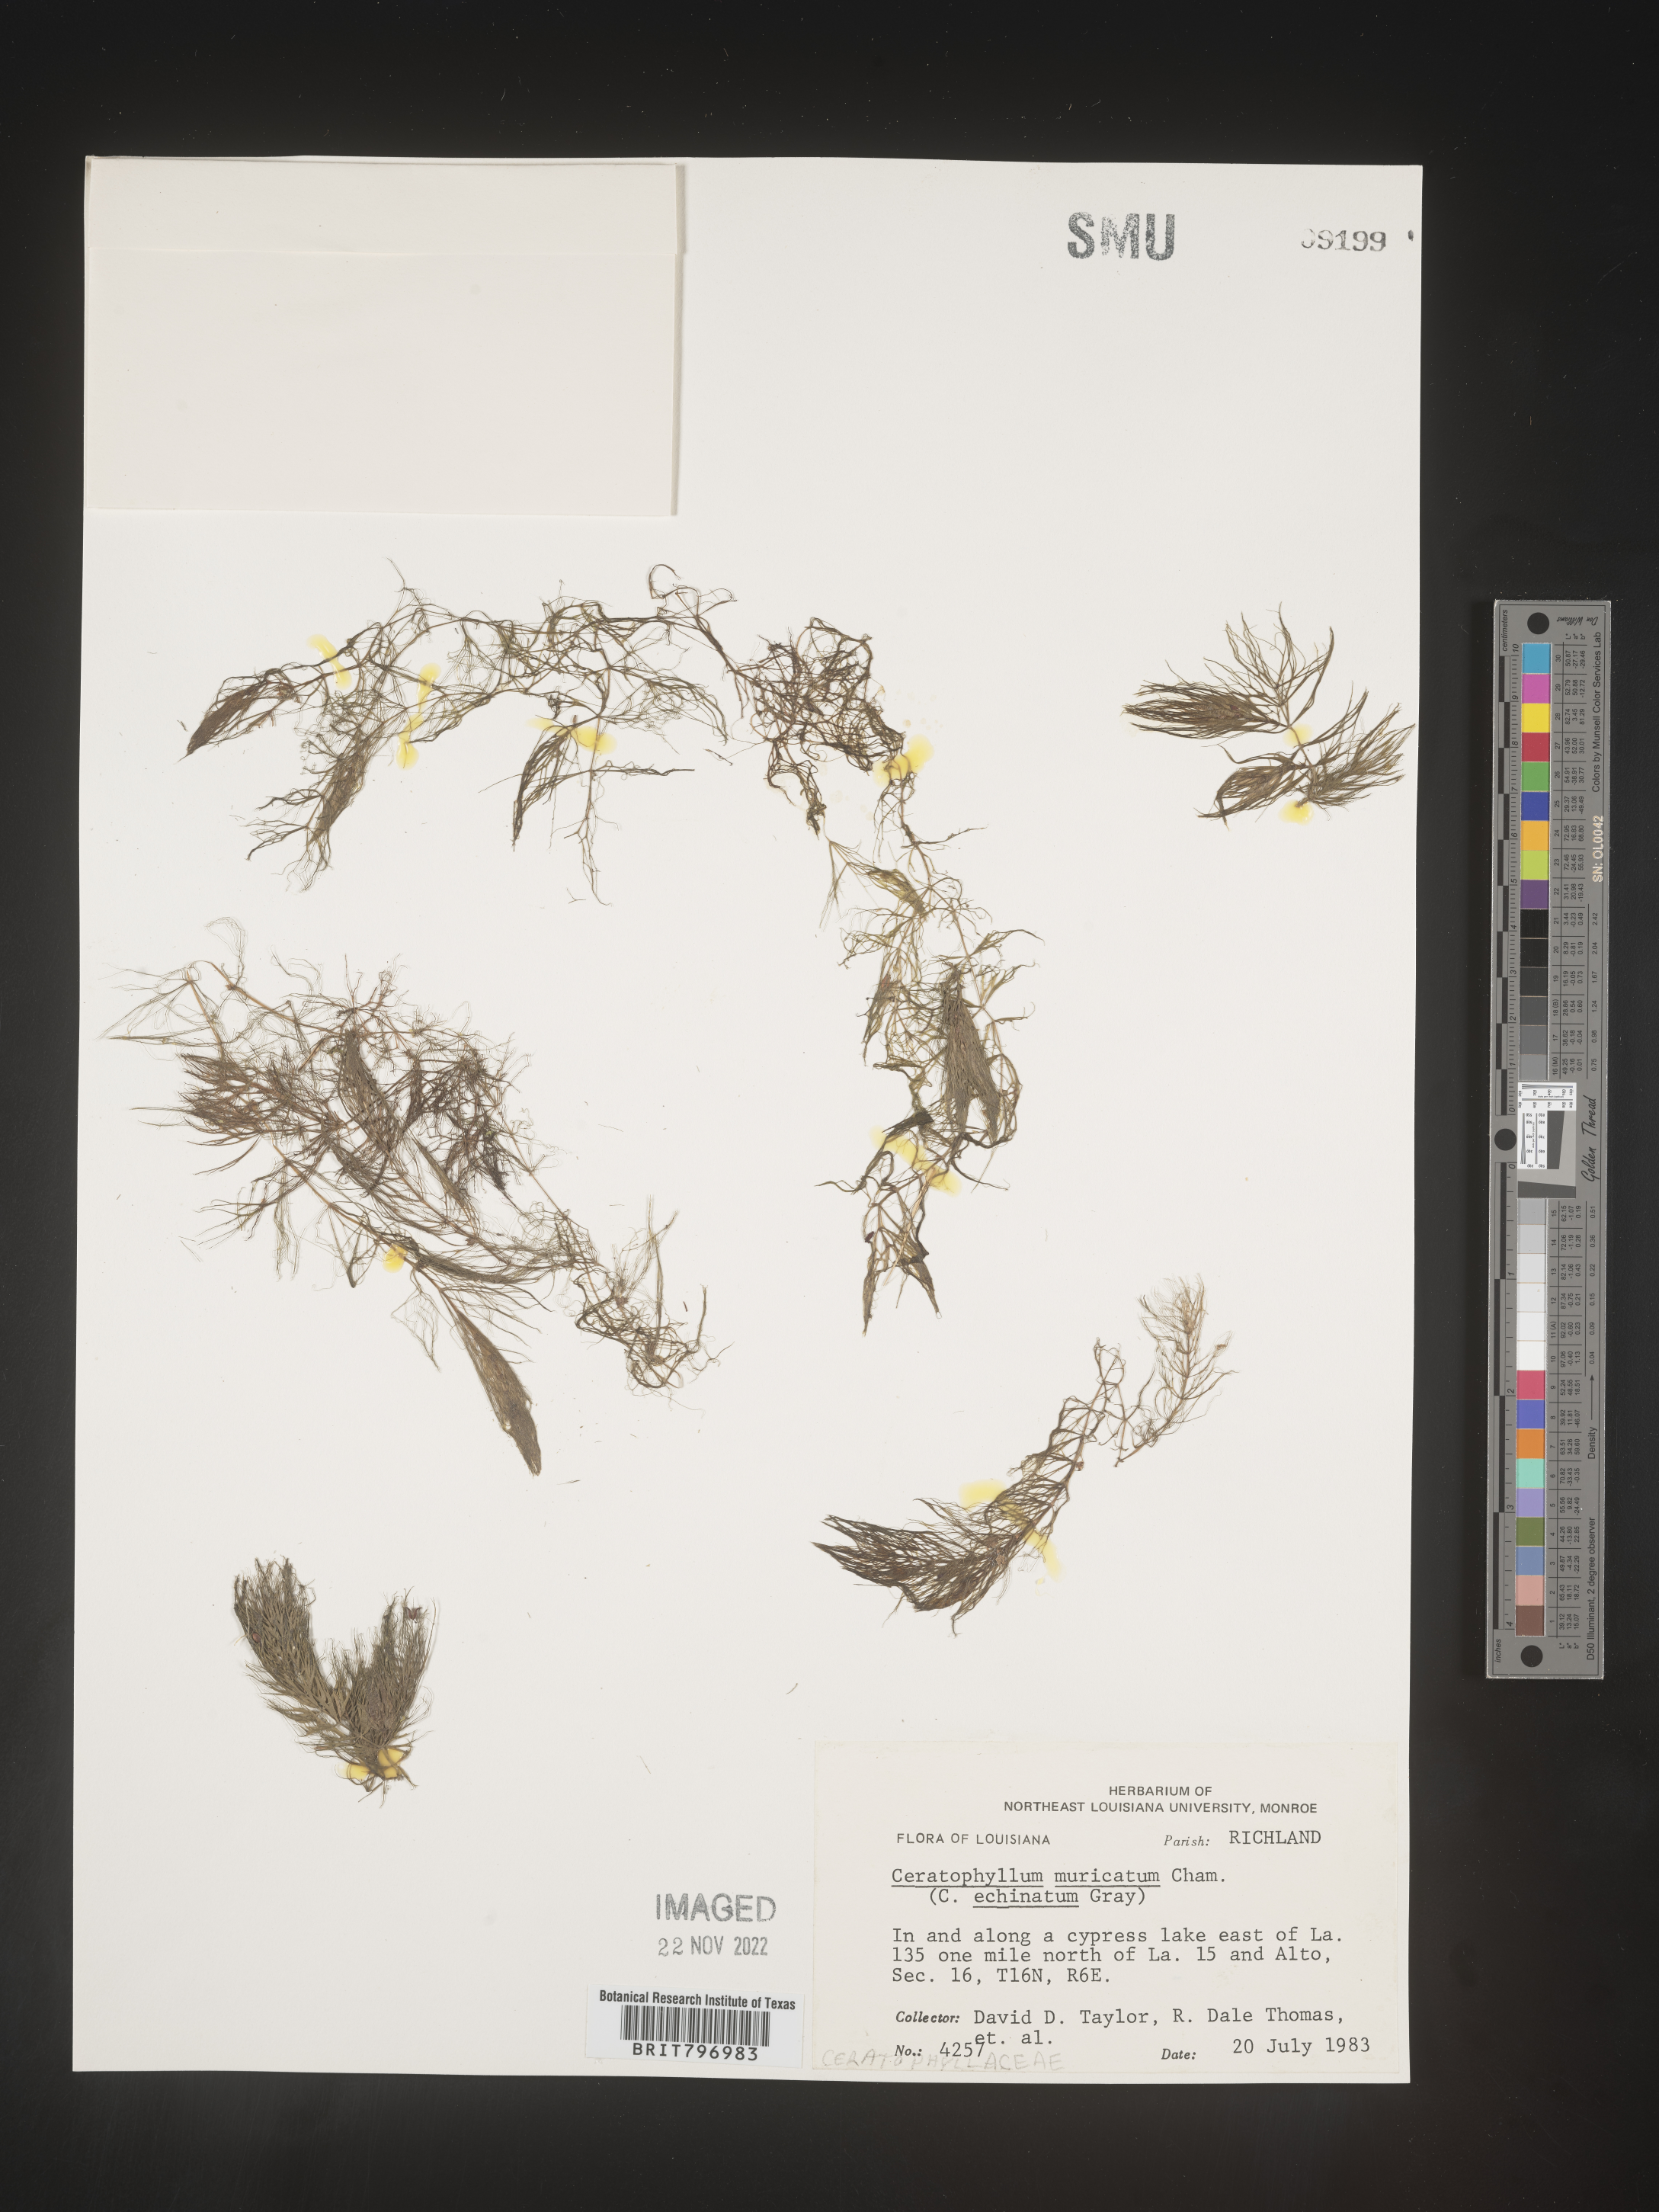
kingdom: Plantae
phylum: Tracheophyta
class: Magnoliopsida
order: Ceratophyllales
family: Ceratophyllaceae
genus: Ceratophyllum
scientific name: Ceratophyllum demersum
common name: Rigid hornwort
